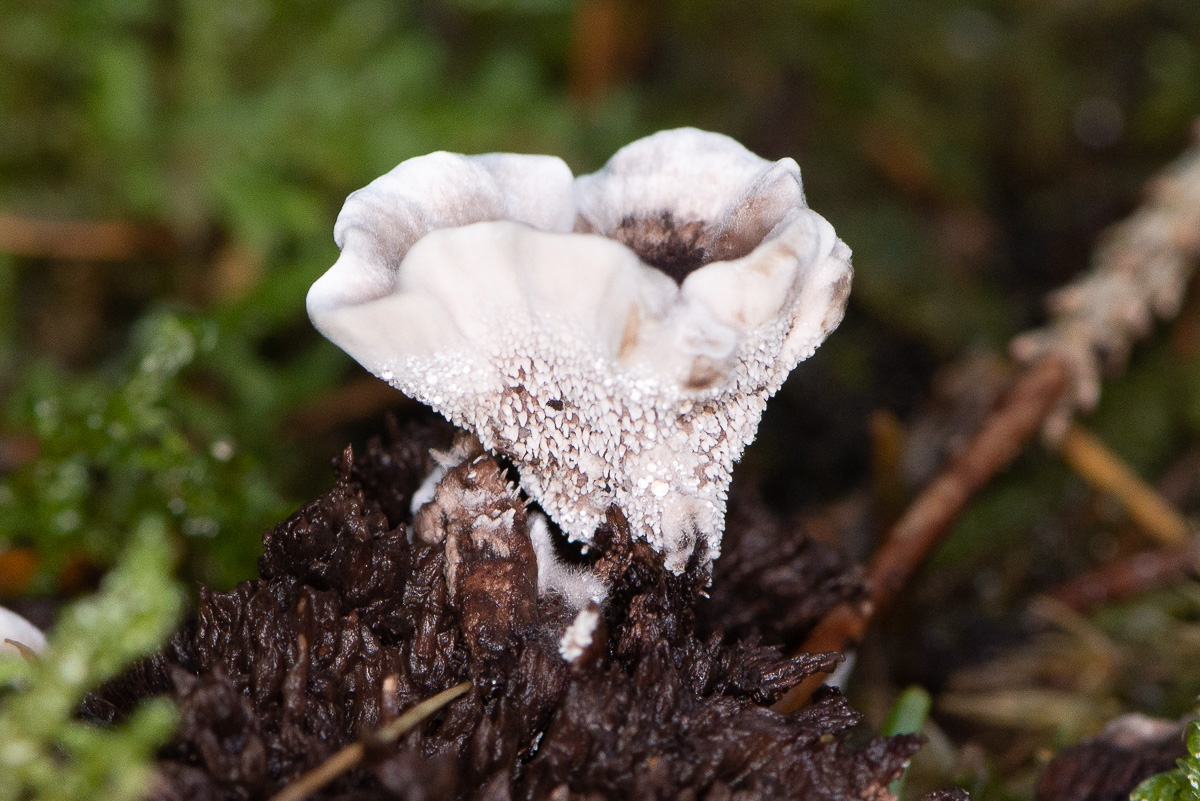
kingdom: Fungi
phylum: Basidiomycota
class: Agaricomycetes
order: Thelephorales
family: Thelephoraceae
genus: Phellodon
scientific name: Phellodon tomentosus
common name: vellugtende duftpigsvamp
